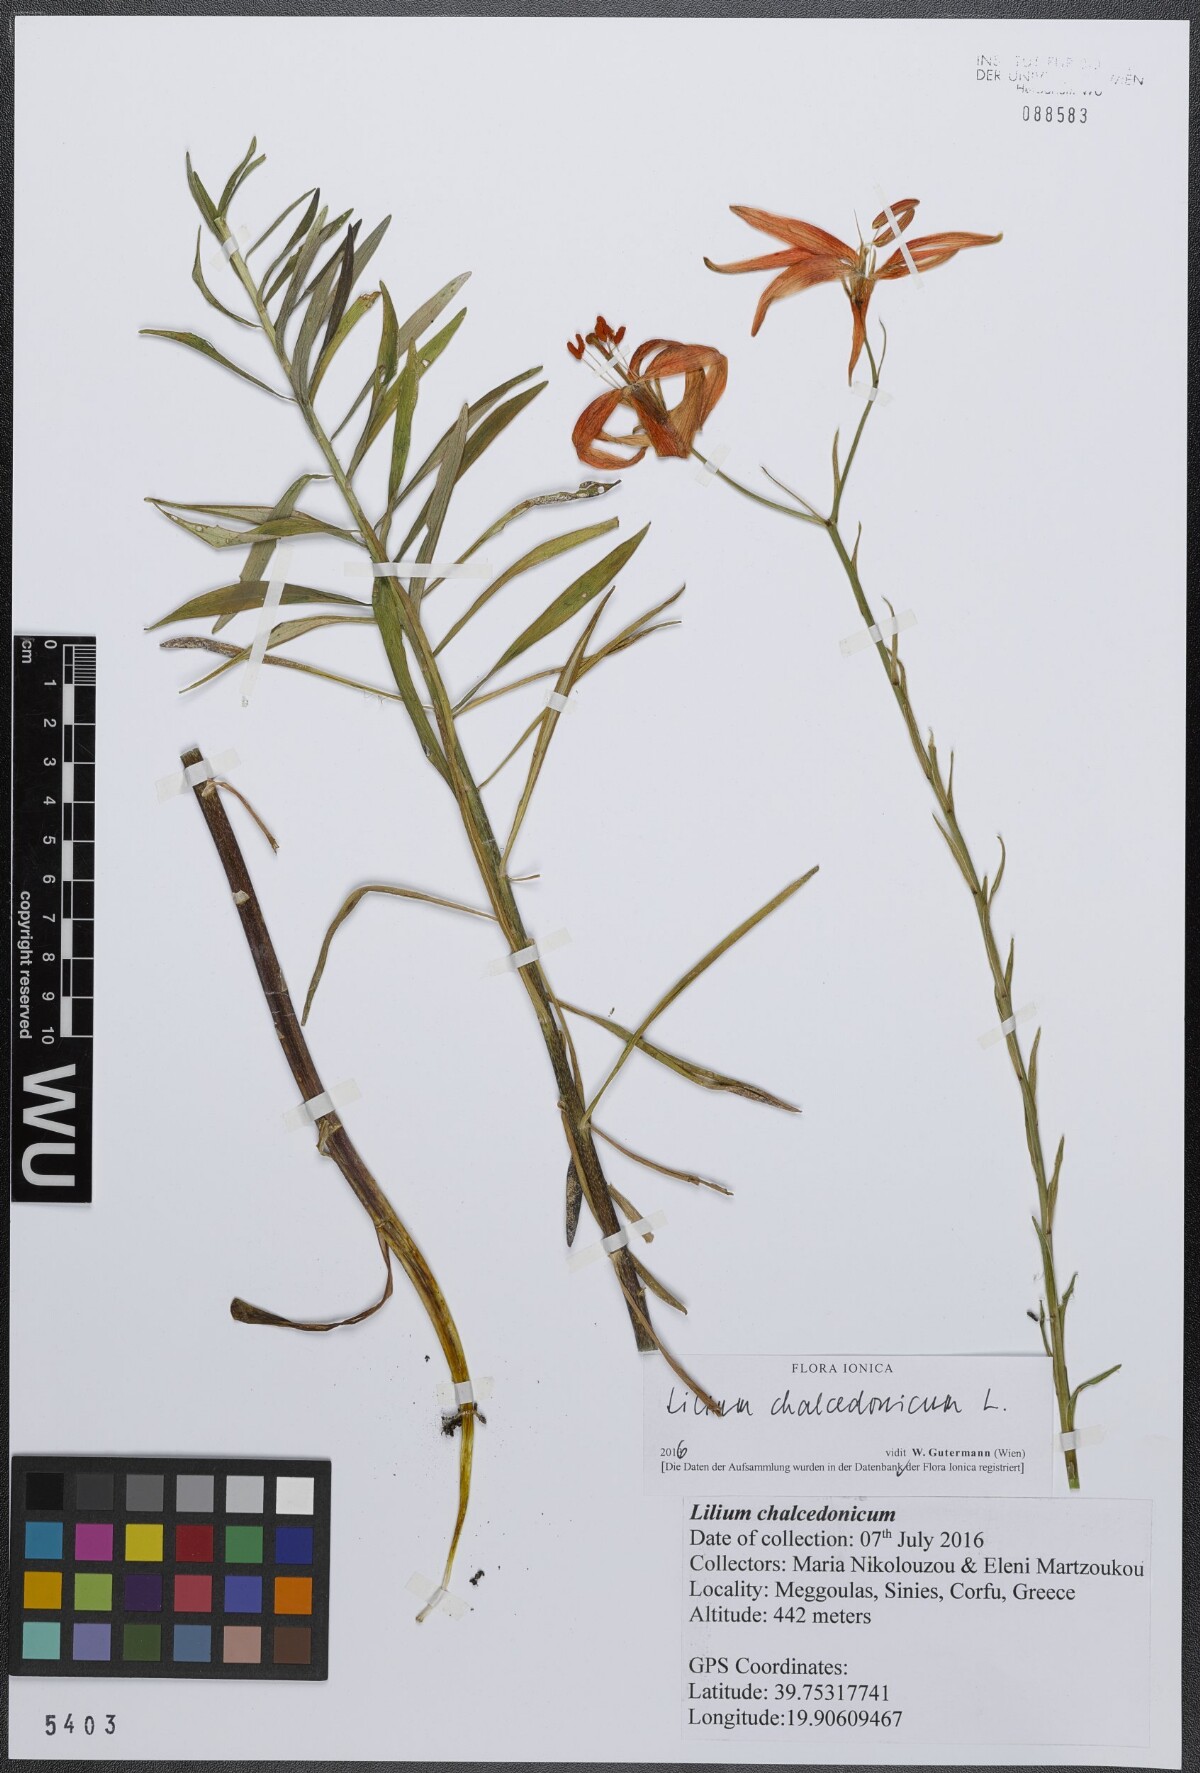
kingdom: Plantae
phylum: Tracheophyta
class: Liliopsida
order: Liliales
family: Liliaceae
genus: Lilium
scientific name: Lilium chalcedonicum
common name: Red martagon of constantinople
